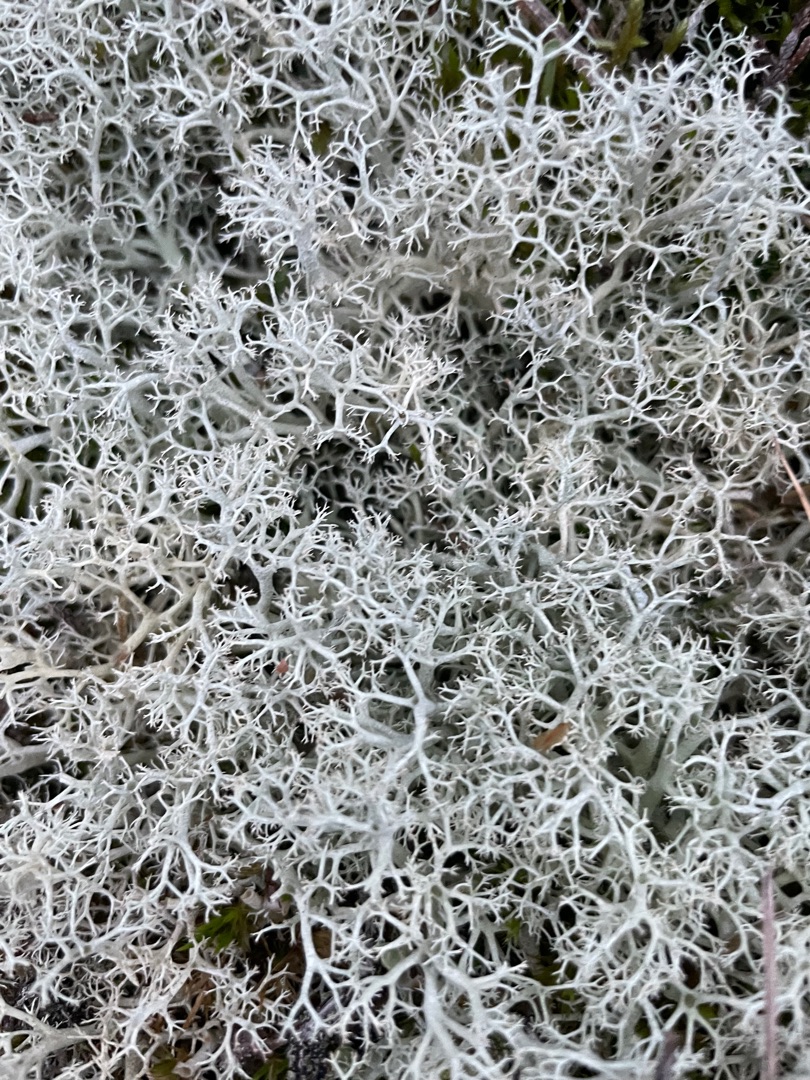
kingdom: Fungi
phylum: Ascomycota
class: Lecanoromycetes
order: Lecanorales
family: Cladoniaceae
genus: Cladonia
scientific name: Cladonia portentosa
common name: Hede-rensdyrlav
